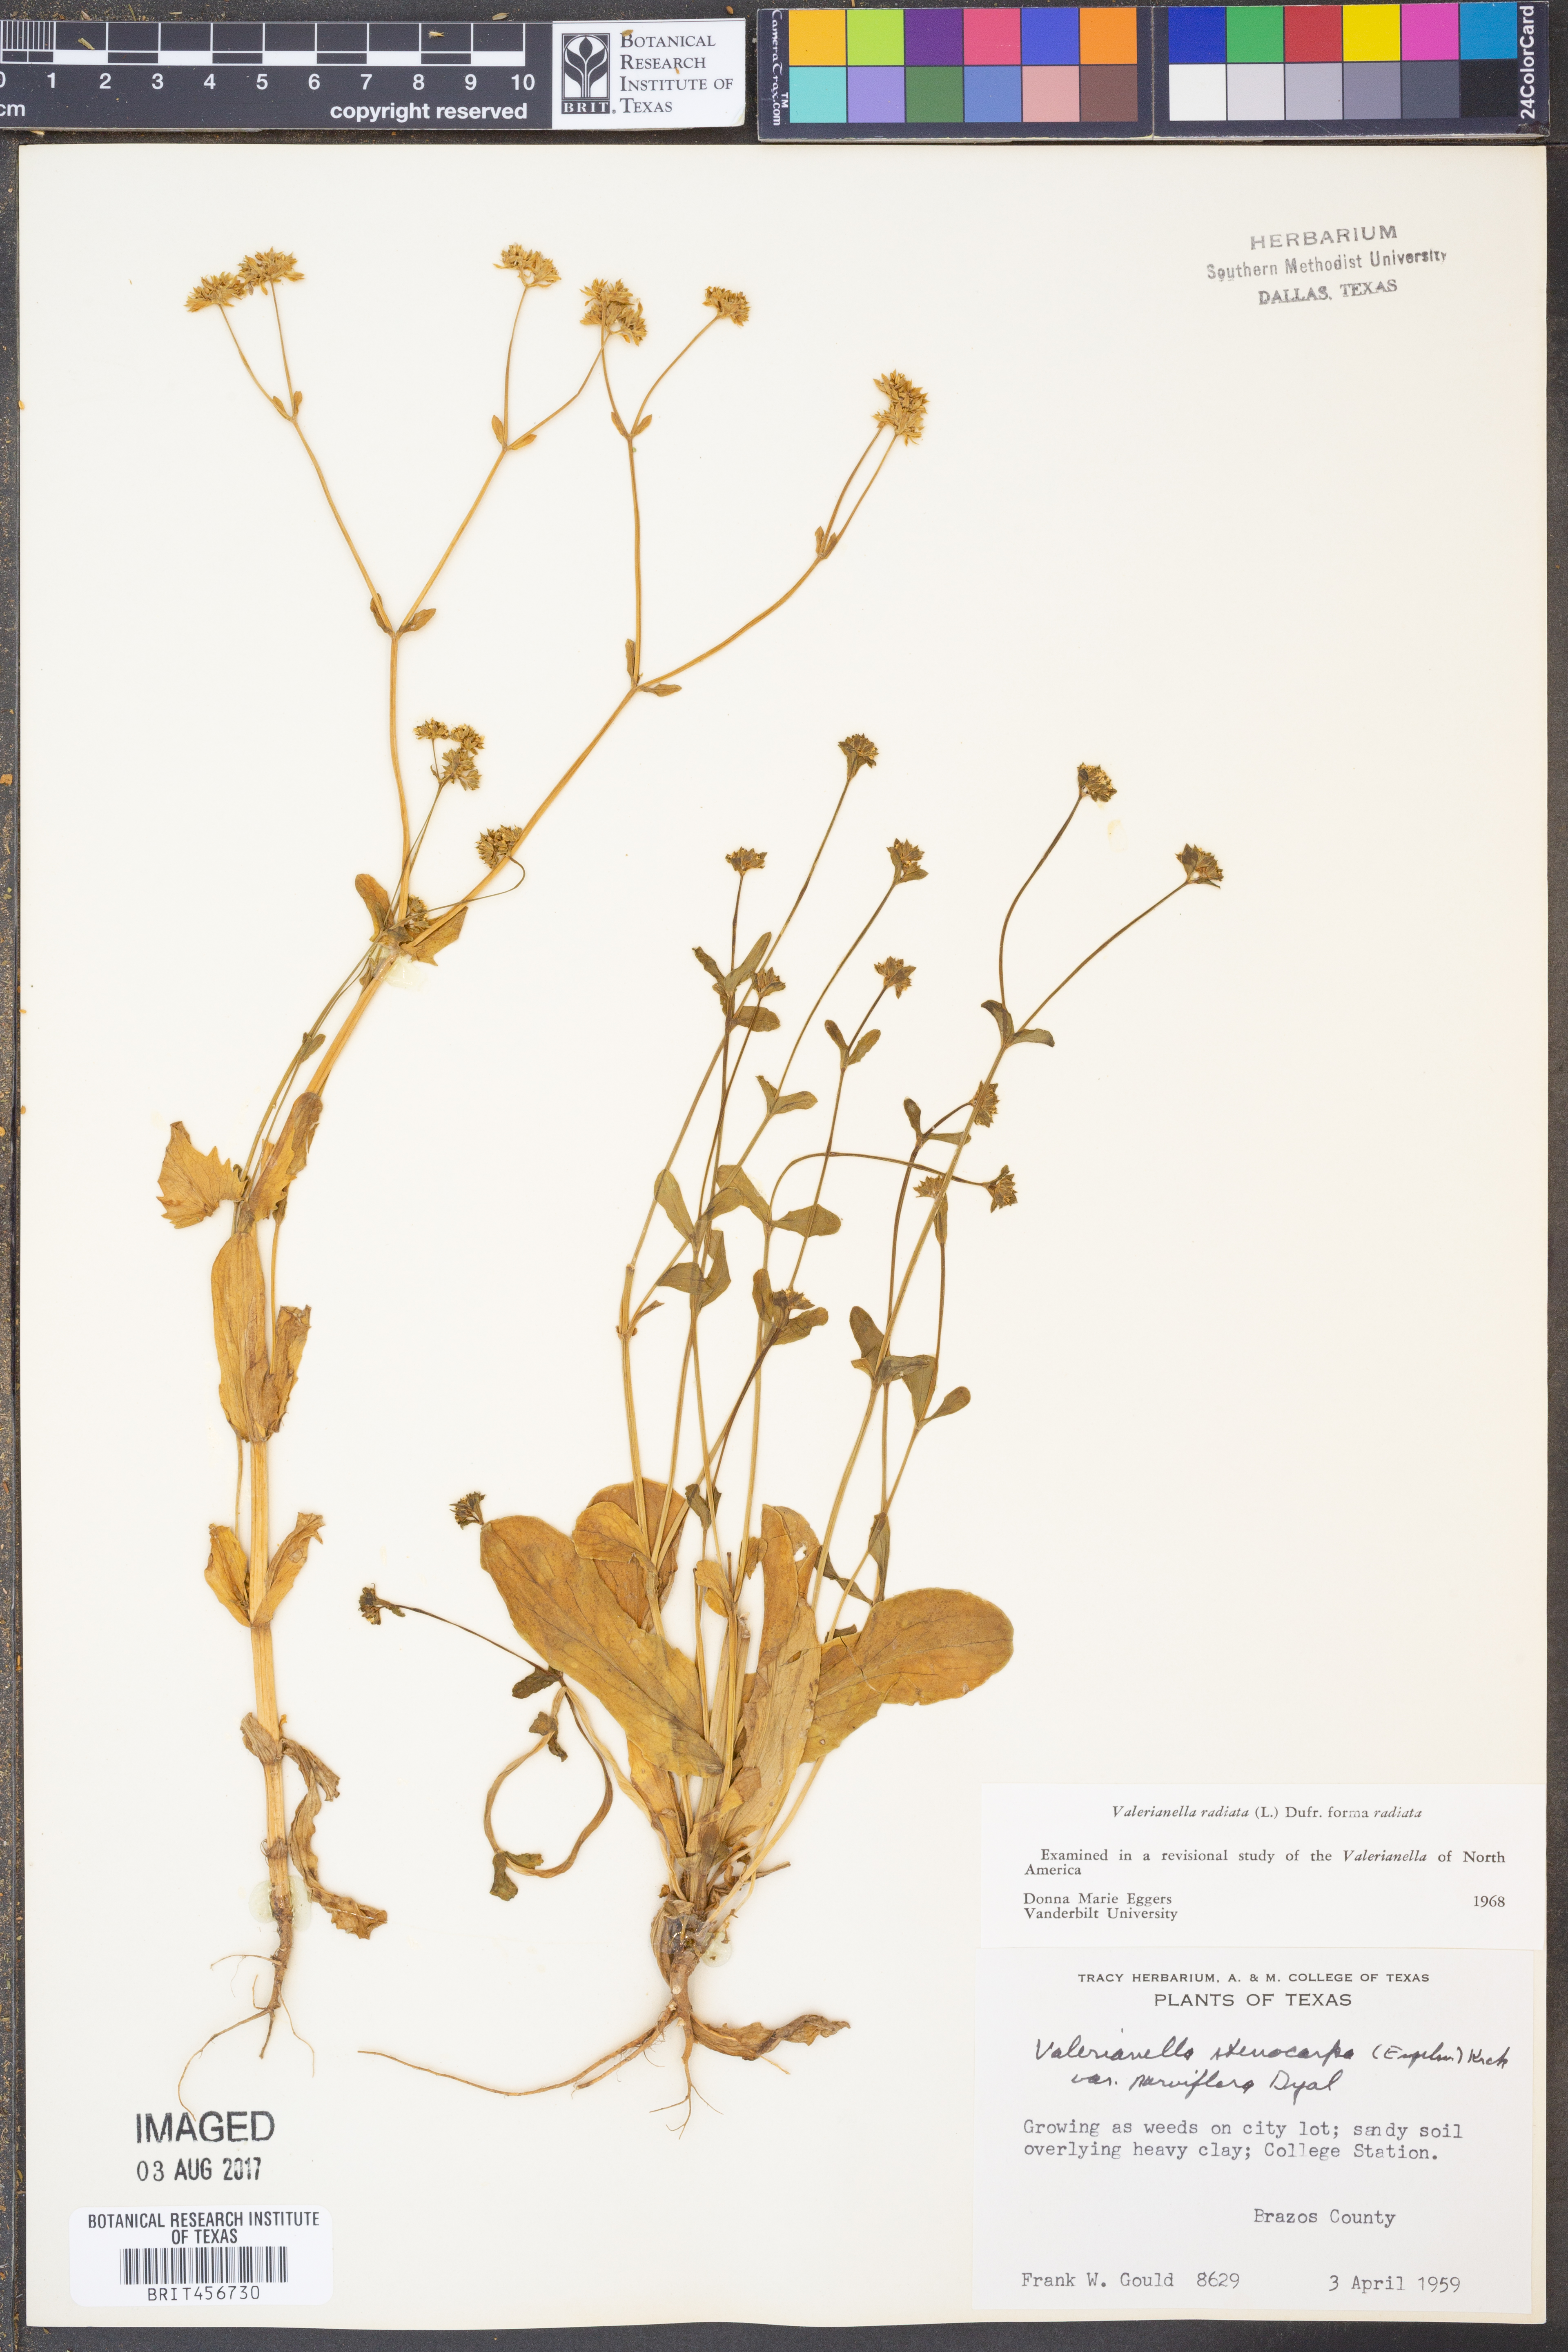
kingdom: Plantae
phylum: Tracheophyta
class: Magnoliopsida
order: Dipsacales
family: Caprifoliaceae
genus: Valerianella
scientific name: Valerianella radiata
